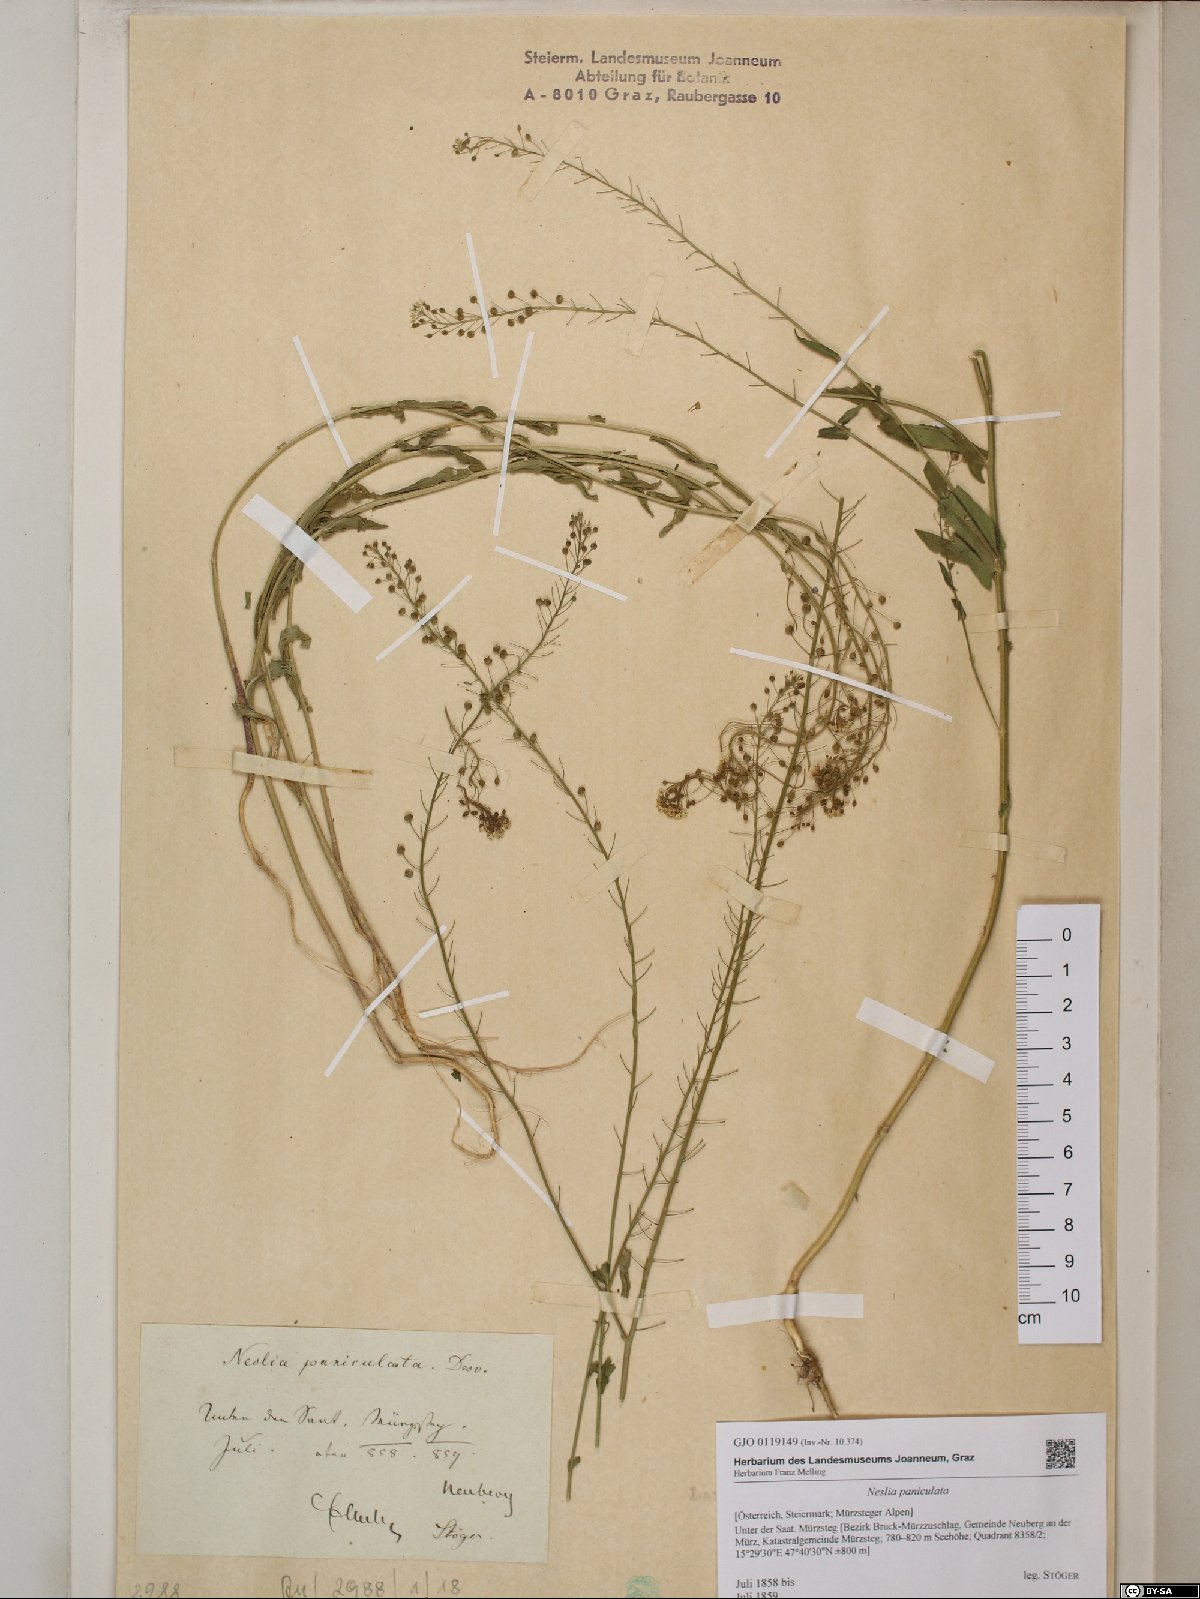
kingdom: Plantae
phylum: Tracheophyta
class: Magnoliopsida
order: Brassicales
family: Brassicaceae
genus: Neslia
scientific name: Neslia paniculata
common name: Ball mustard
